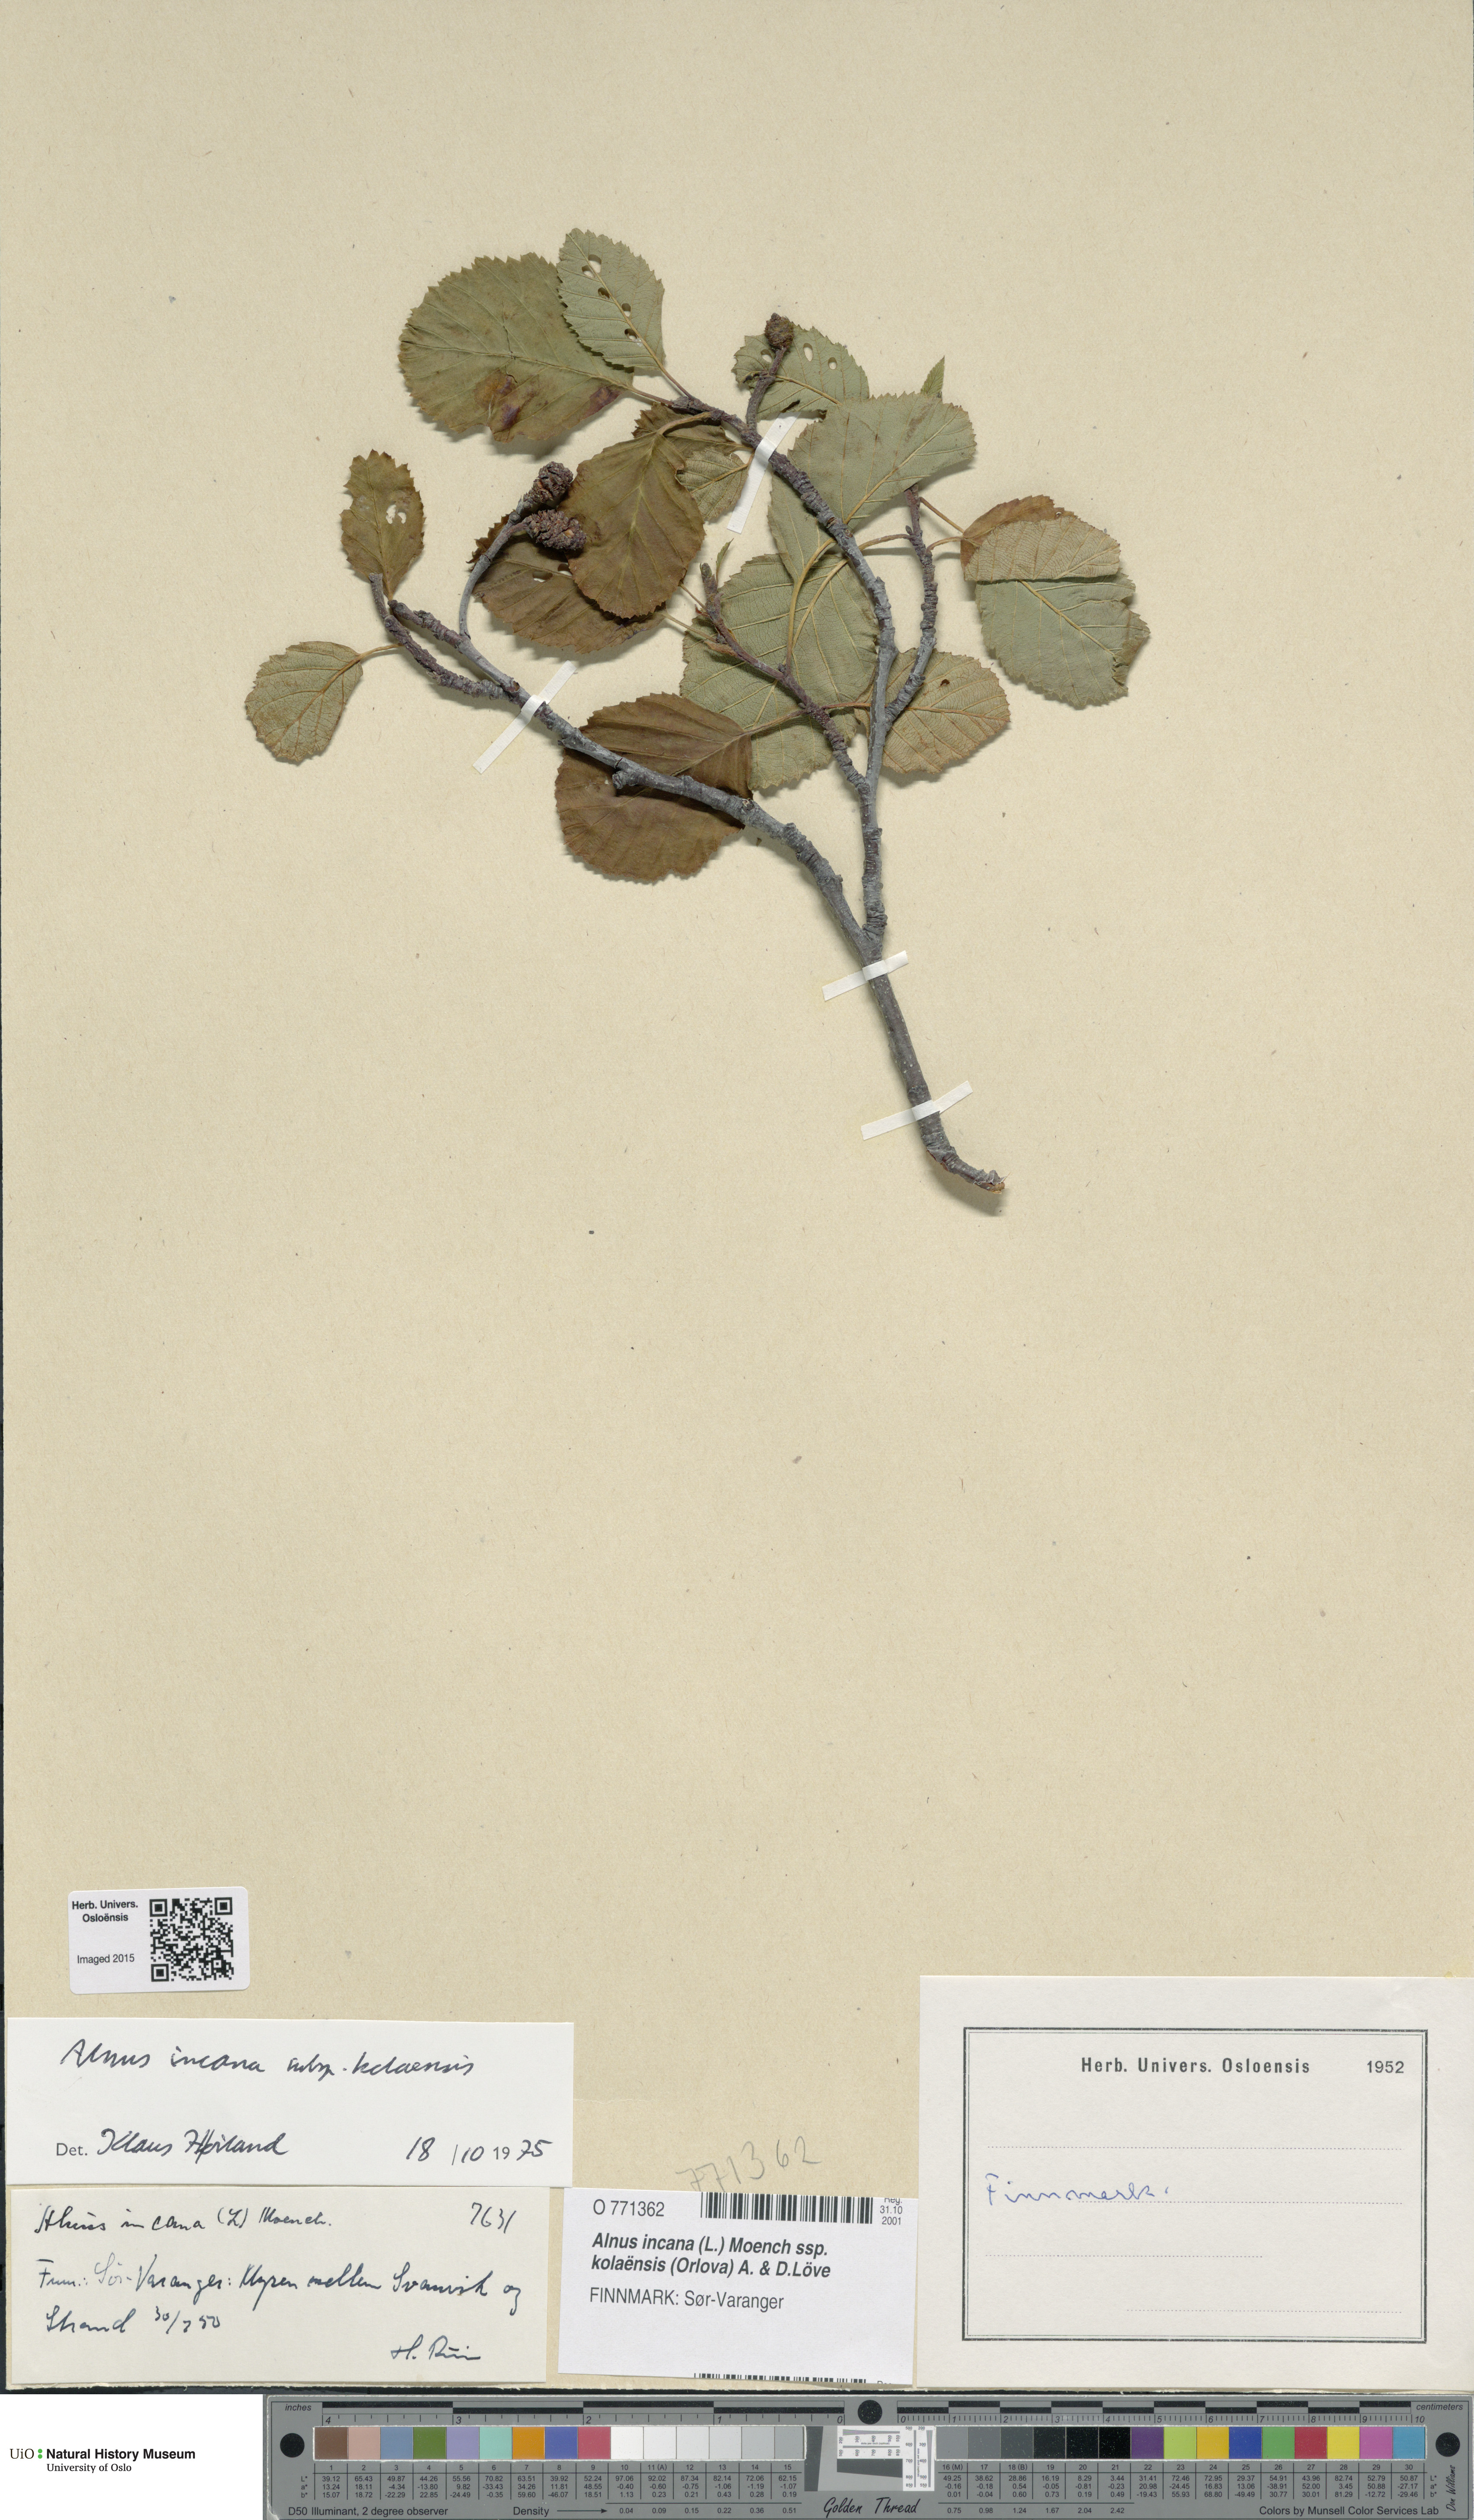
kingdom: Plantae
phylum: Tracheophyta
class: Magnoliopsida
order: Fagales
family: Betulaceae
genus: Alnus
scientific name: Alnus incana
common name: Grey alder
